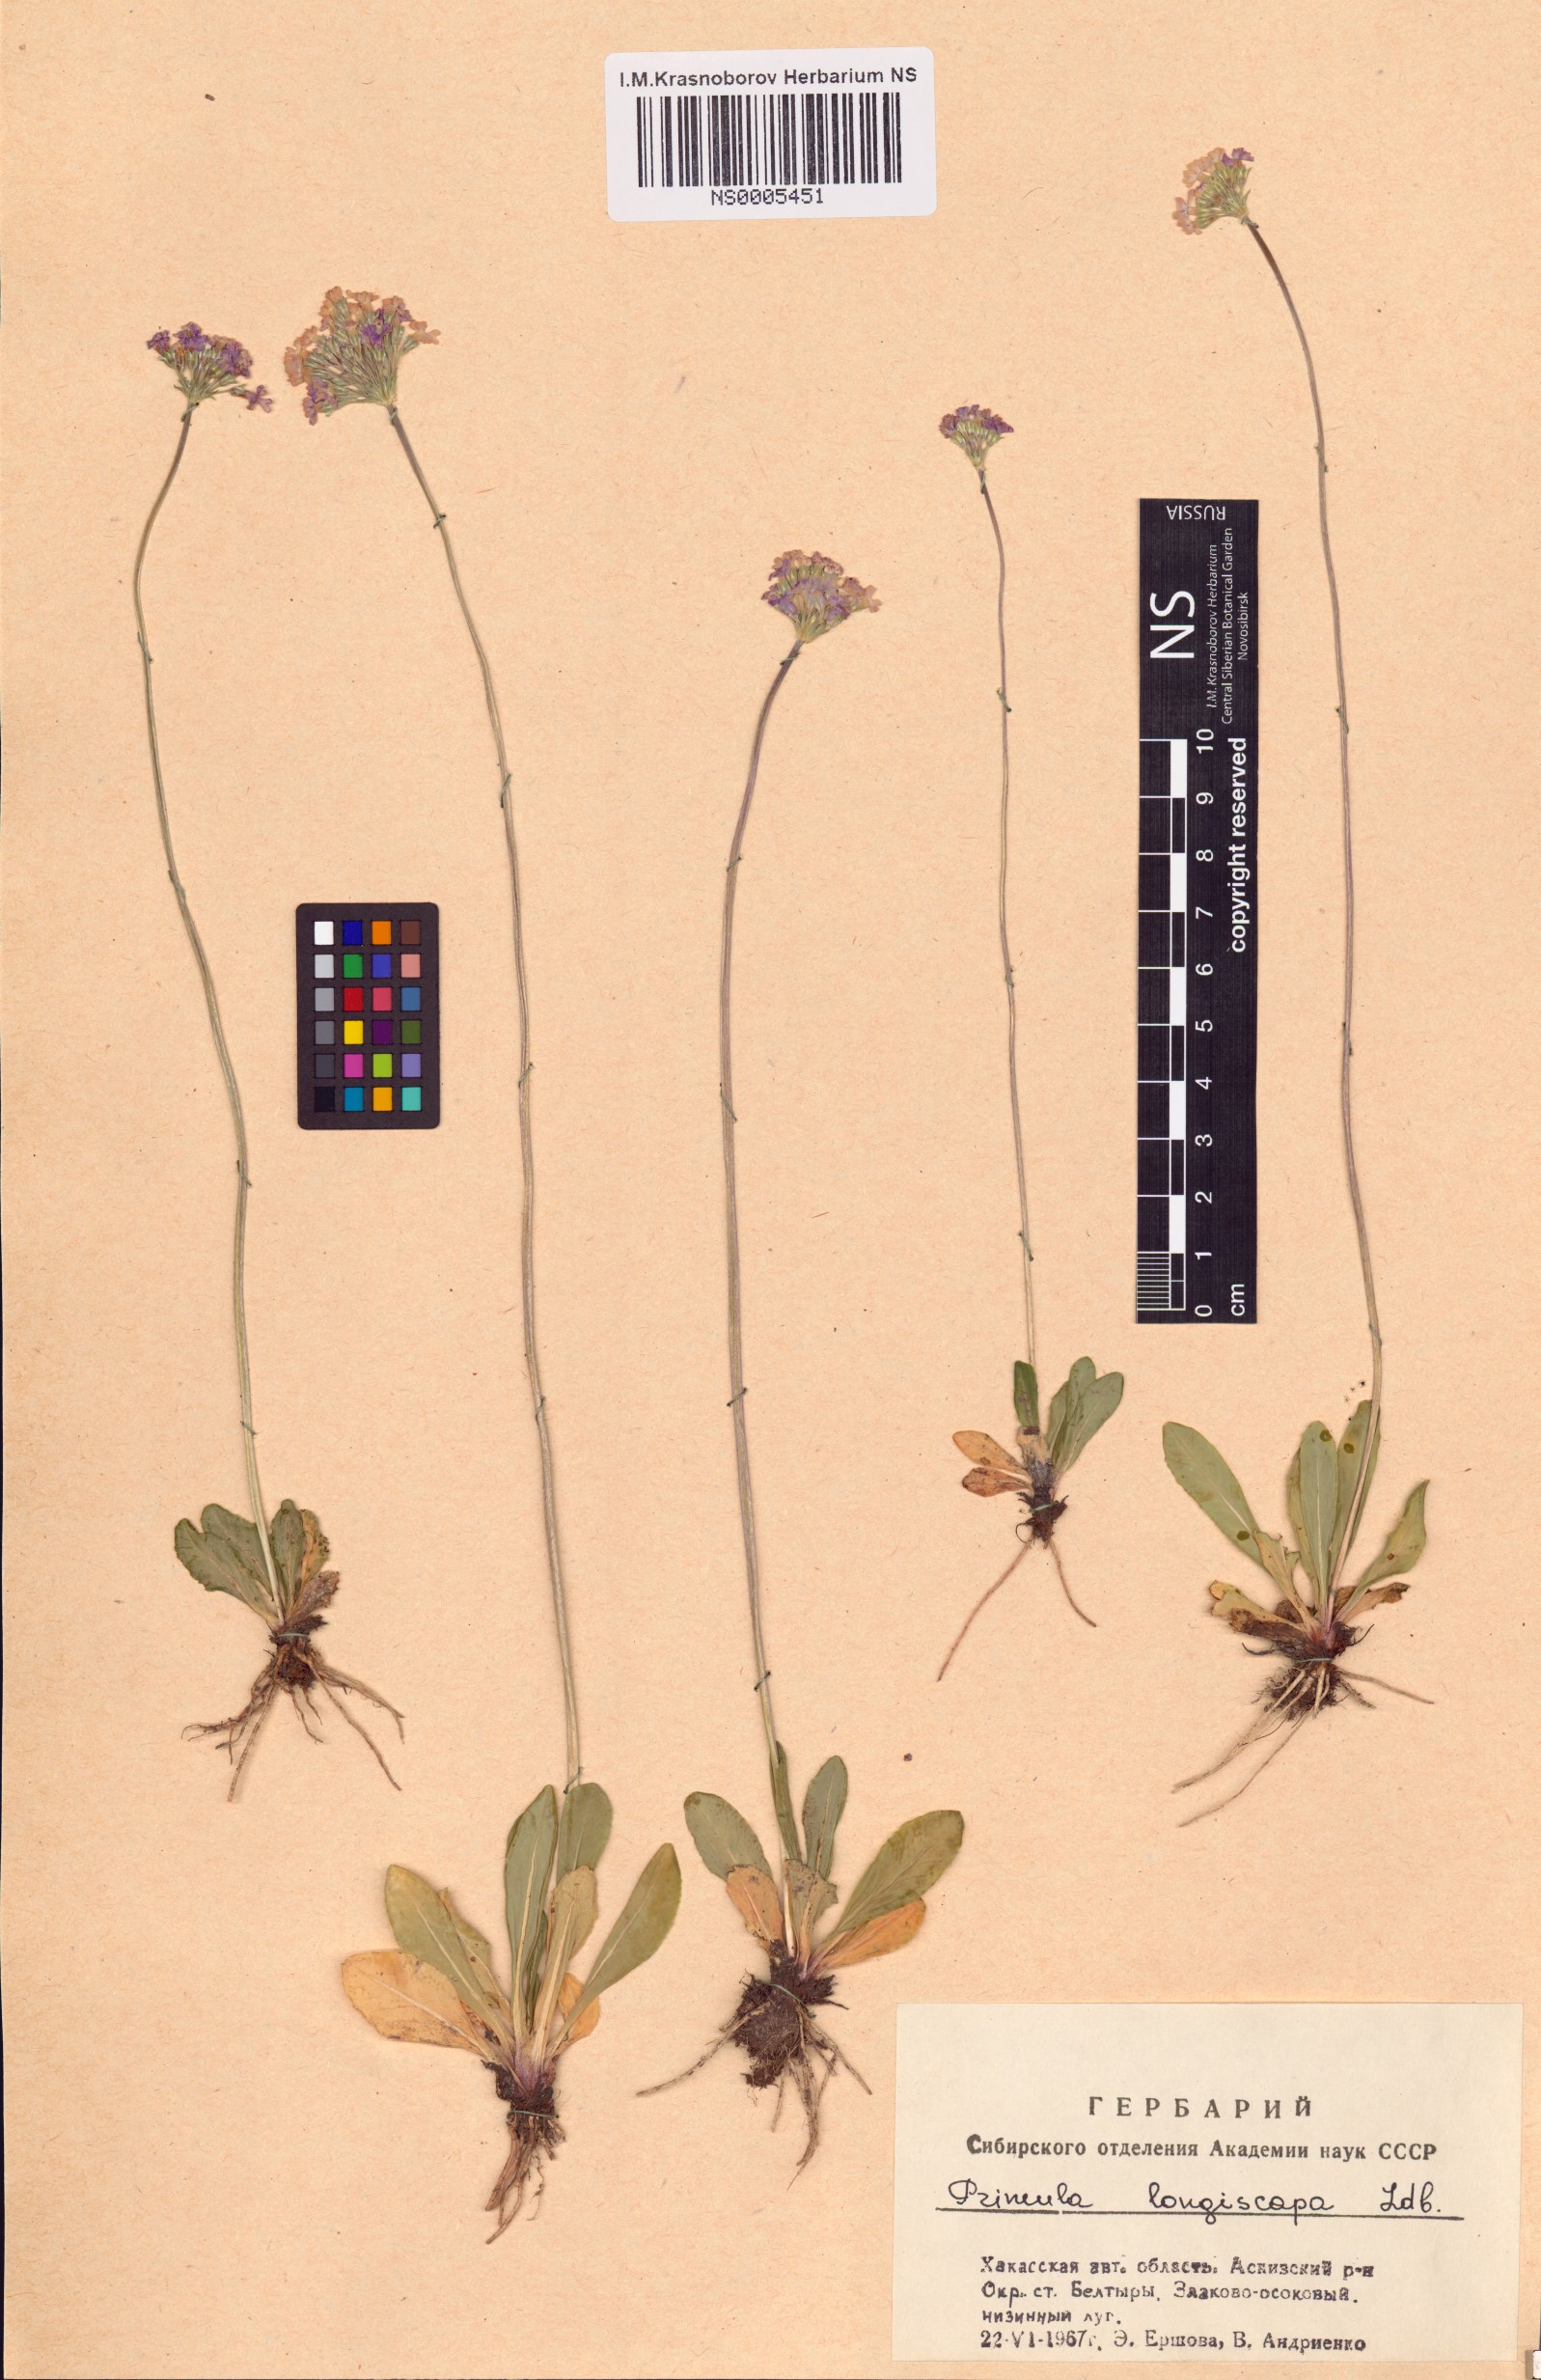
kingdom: Plantae
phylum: Tracheophyta
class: Magnoliopsida
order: Ericales
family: Primulaceae
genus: Primula
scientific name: Primula longiscapa
